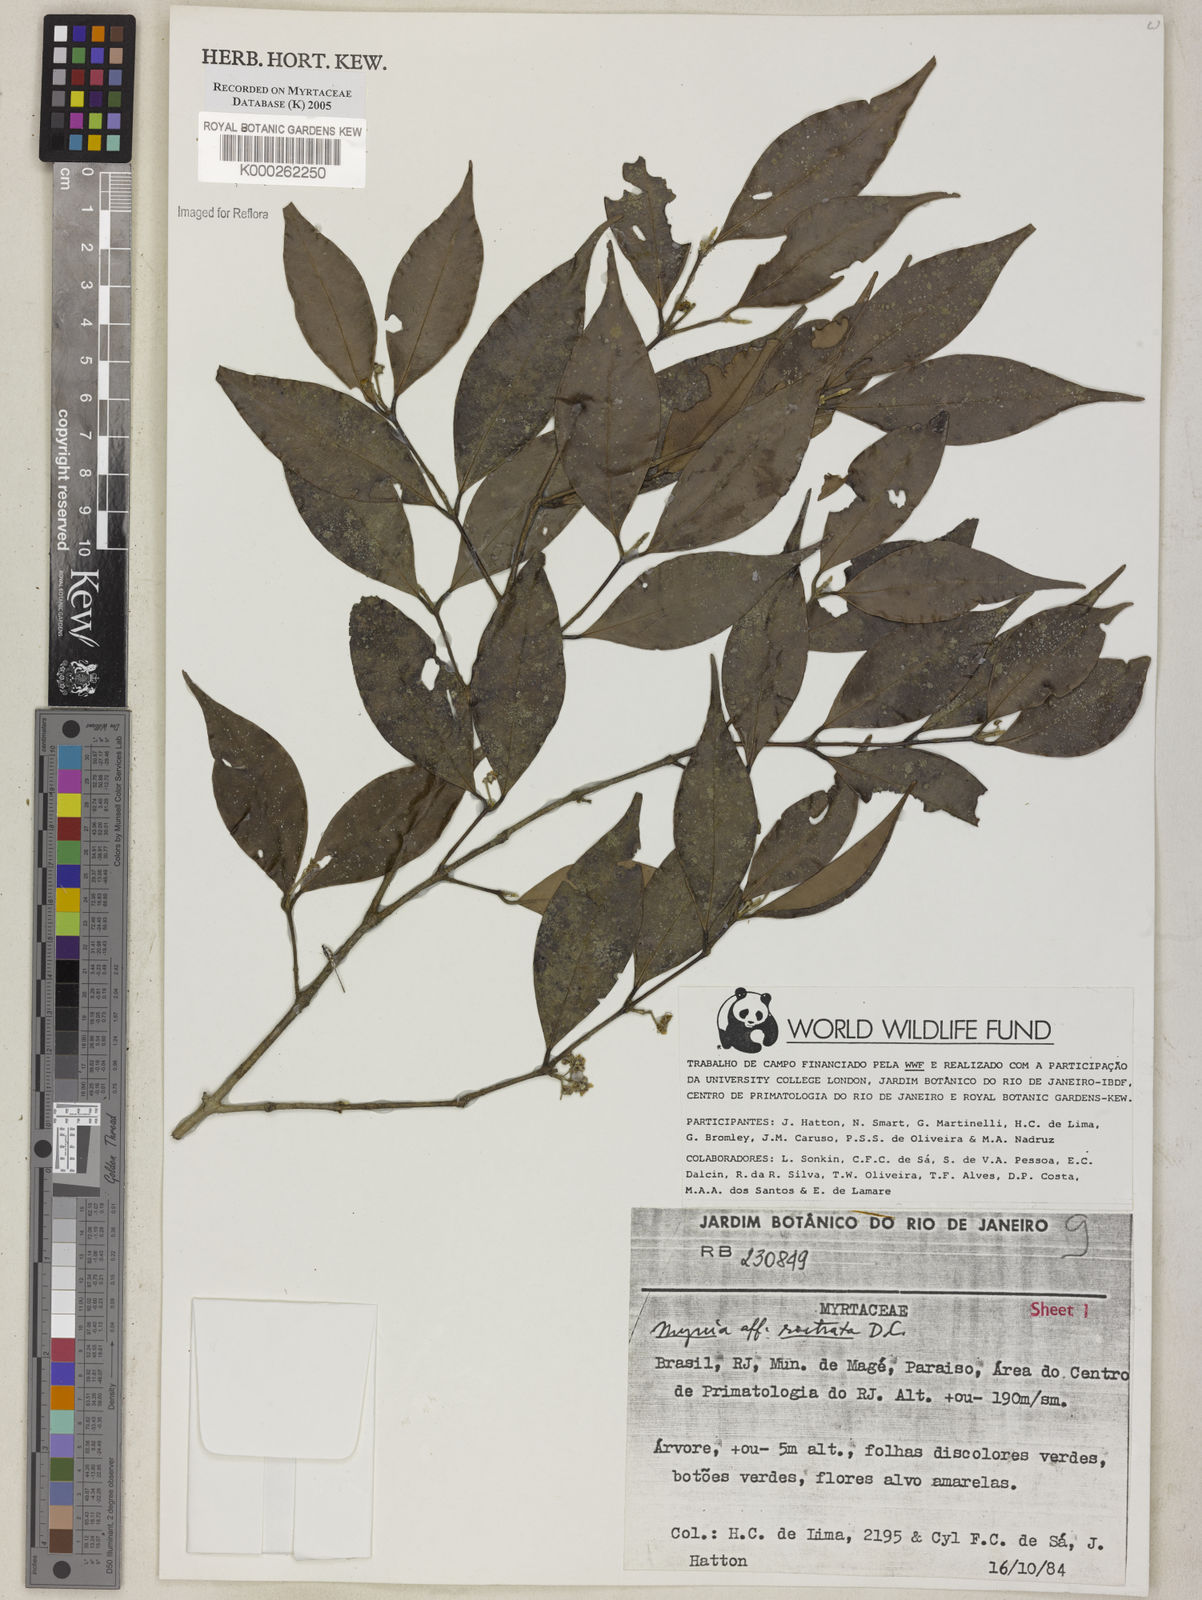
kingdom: Plantae
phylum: Tracheophyta
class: Magnoliopsida
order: Myrtales
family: Myrtaceae
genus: Myrcia
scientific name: Myrcia splendens
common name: Surinam cherry
